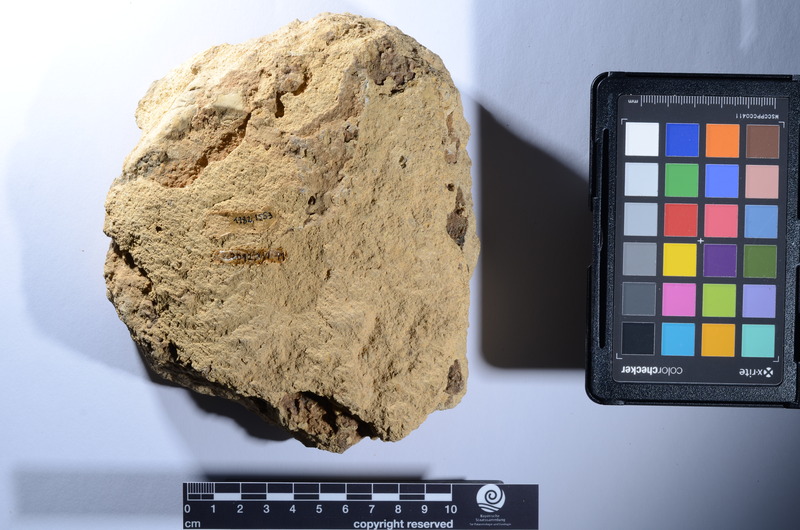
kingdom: Animalia
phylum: Chordata
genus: Aphelolepis
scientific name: Aphelolepis
